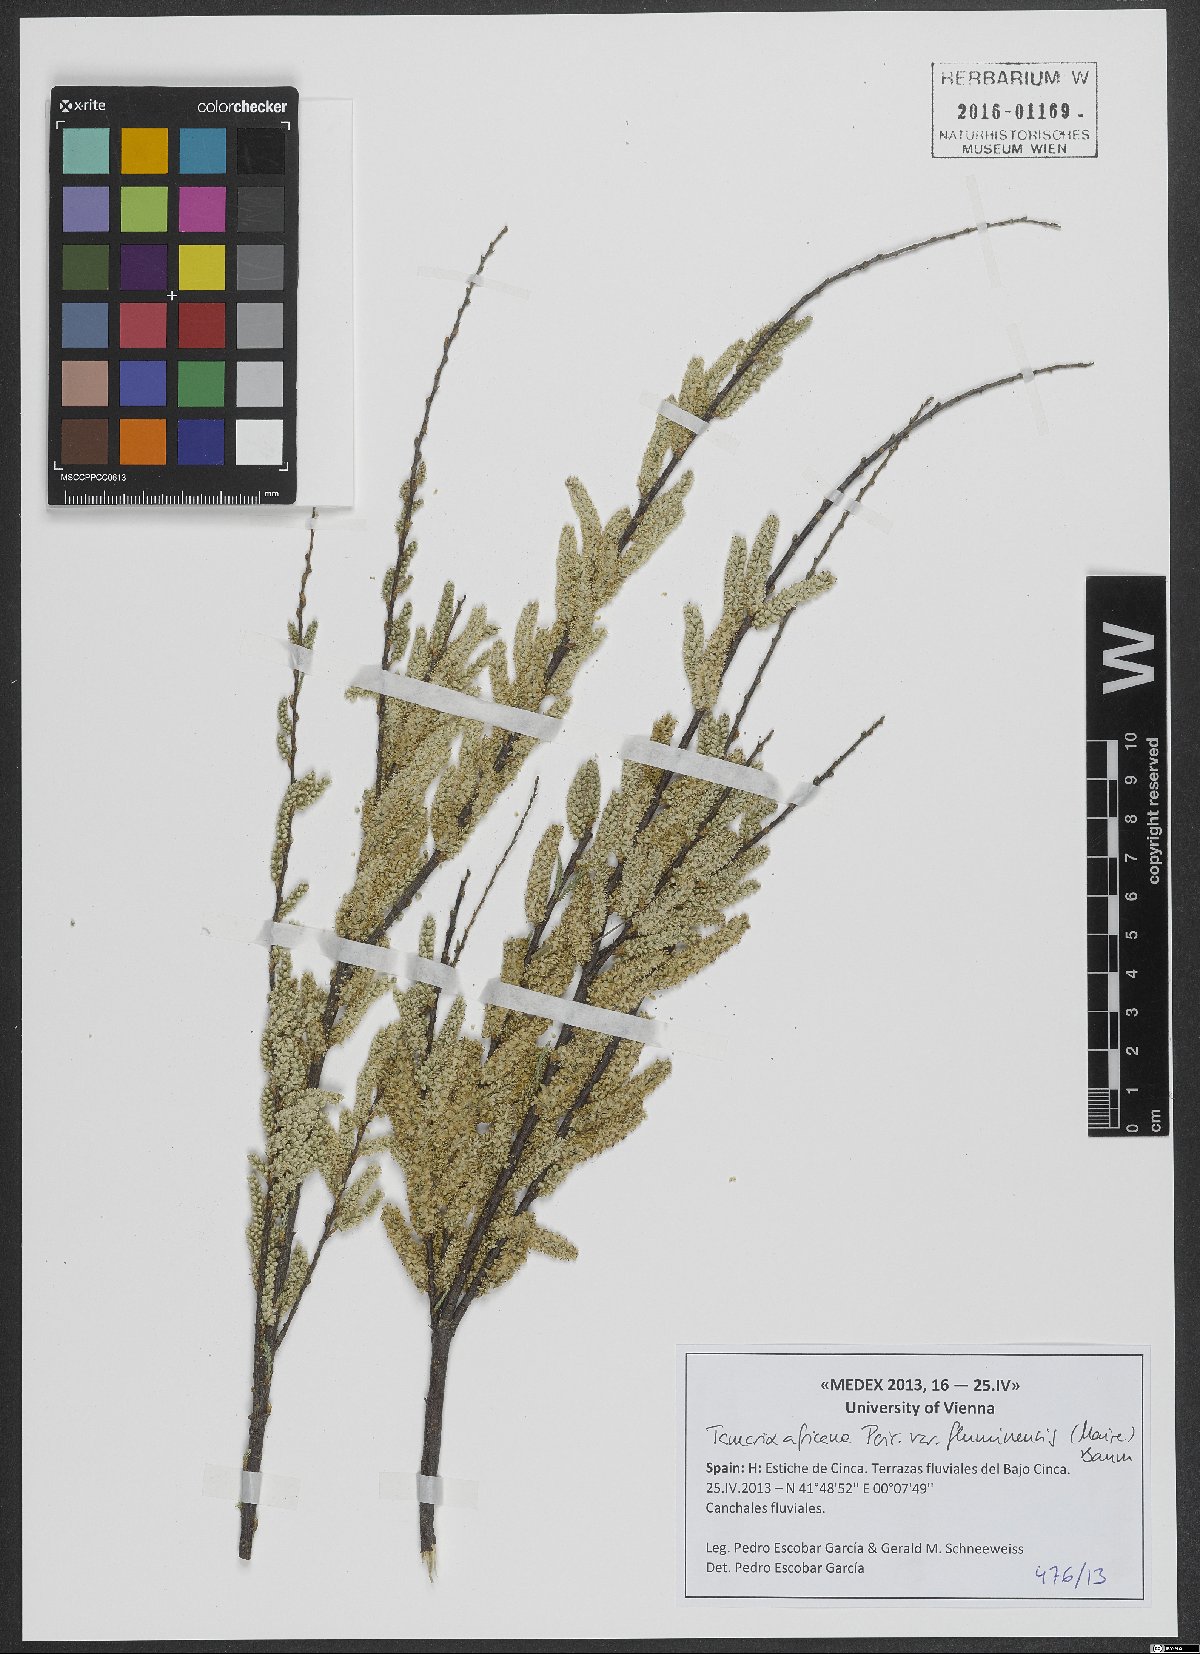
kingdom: Plantae
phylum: Tracheophyta
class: Magnoliopsida
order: Caryophyllales
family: Tamaricaceae
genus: Tamarix
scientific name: Tamarix africana
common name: African tamarisk
